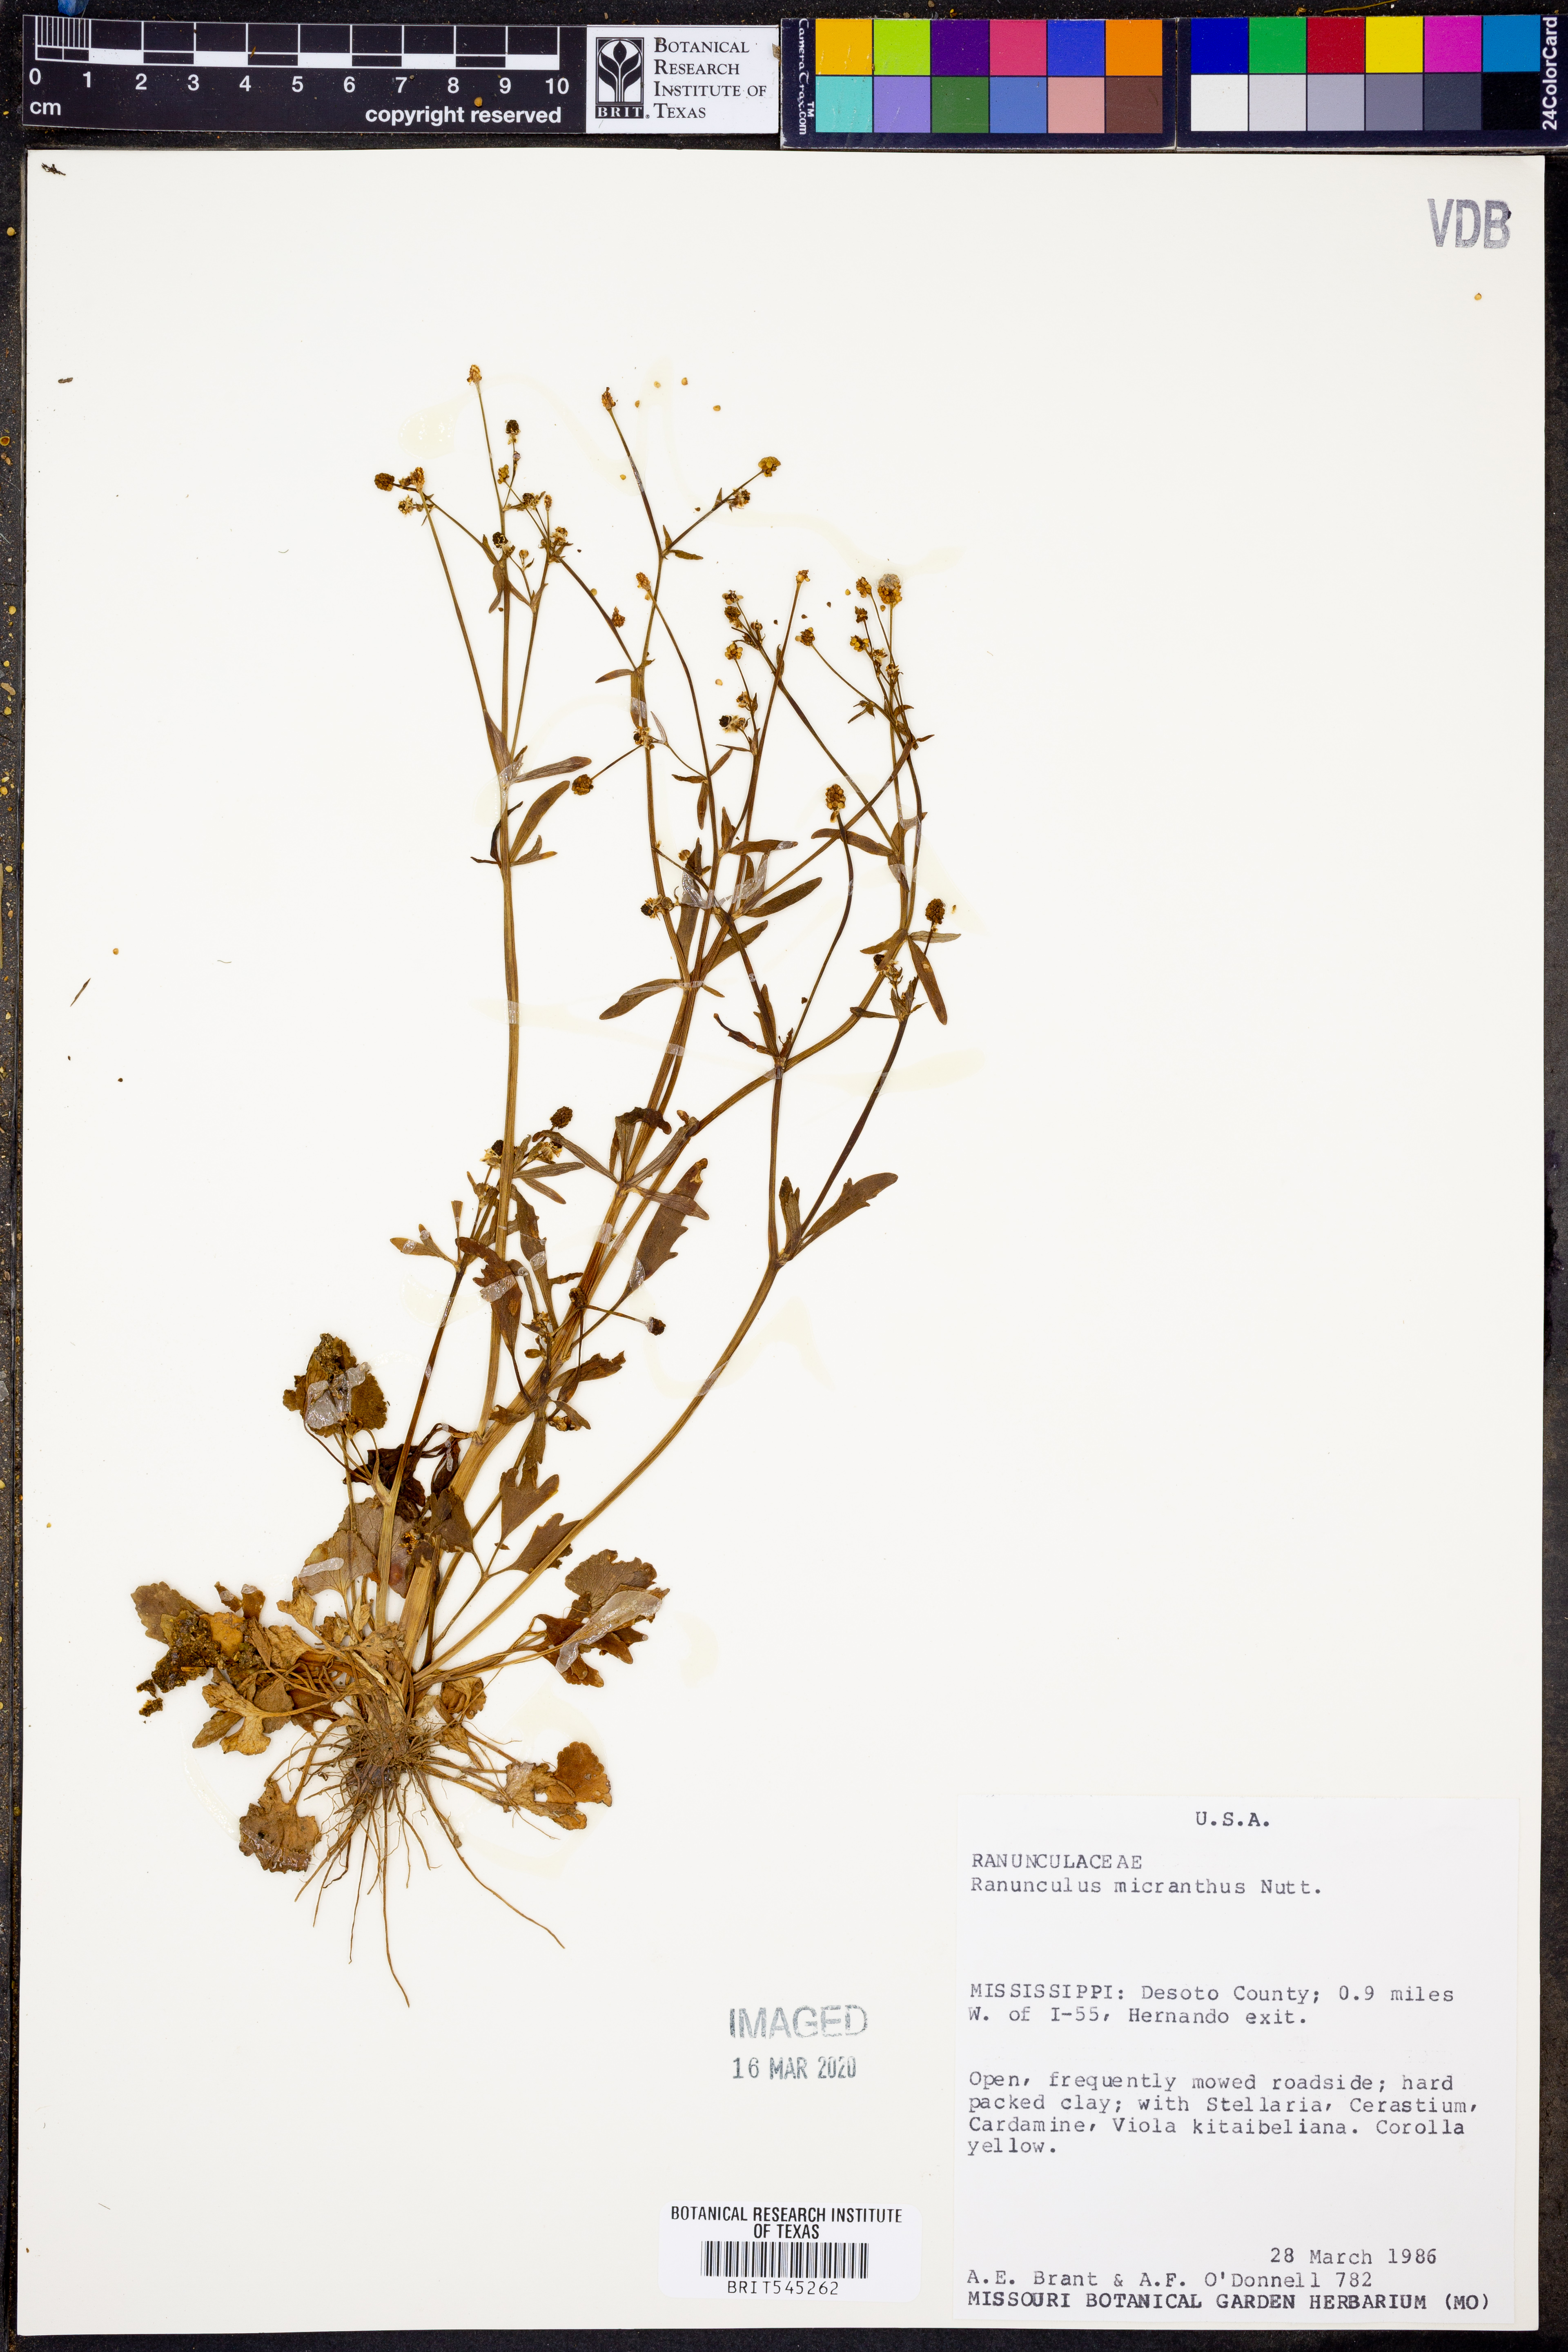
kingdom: Plantae
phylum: Tracheophyta
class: Magnoliopsida
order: Ranunculales
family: Ranunculaceae
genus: Ranunculus
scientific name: Ranunculus micranthus
